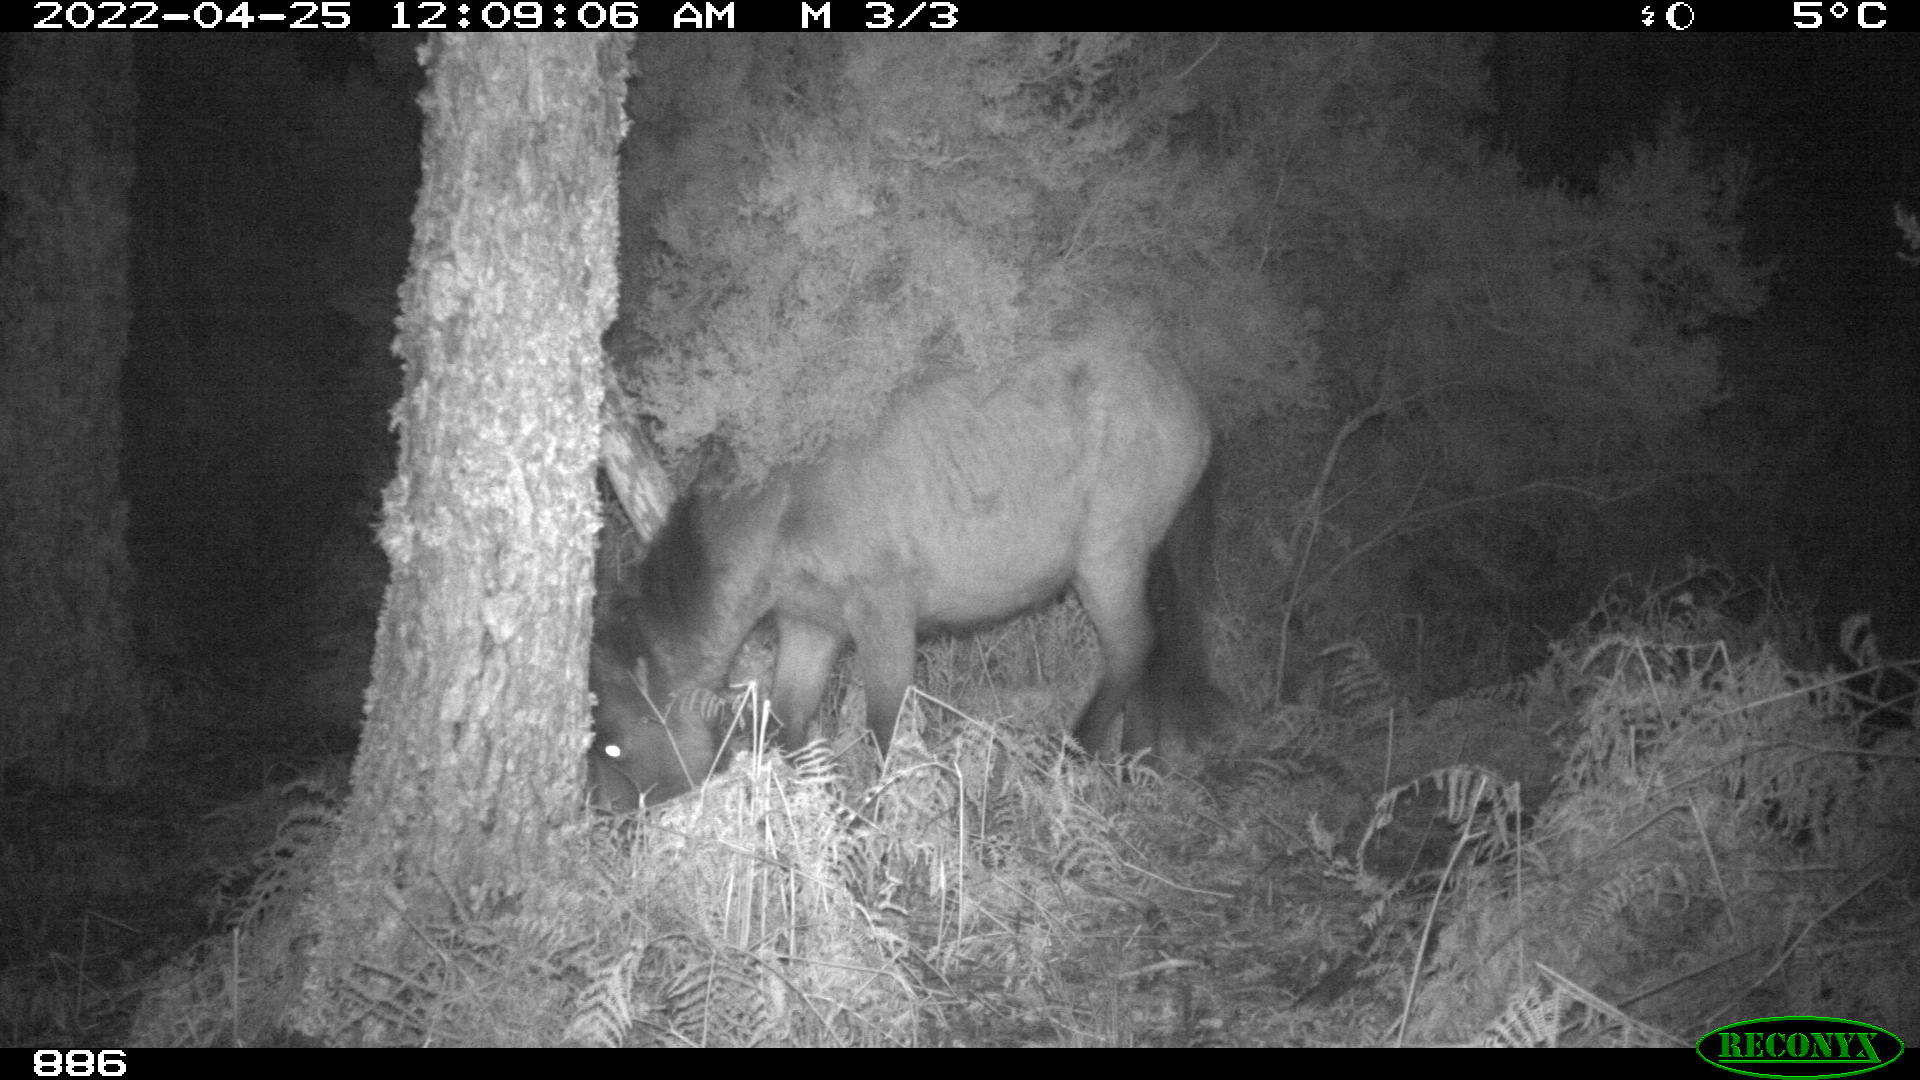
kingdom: Animalia
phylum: Chordata
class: Mammalia
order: Perissodactyla
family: Equidae
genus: Equus
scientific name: Equus caballus
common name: Horse
